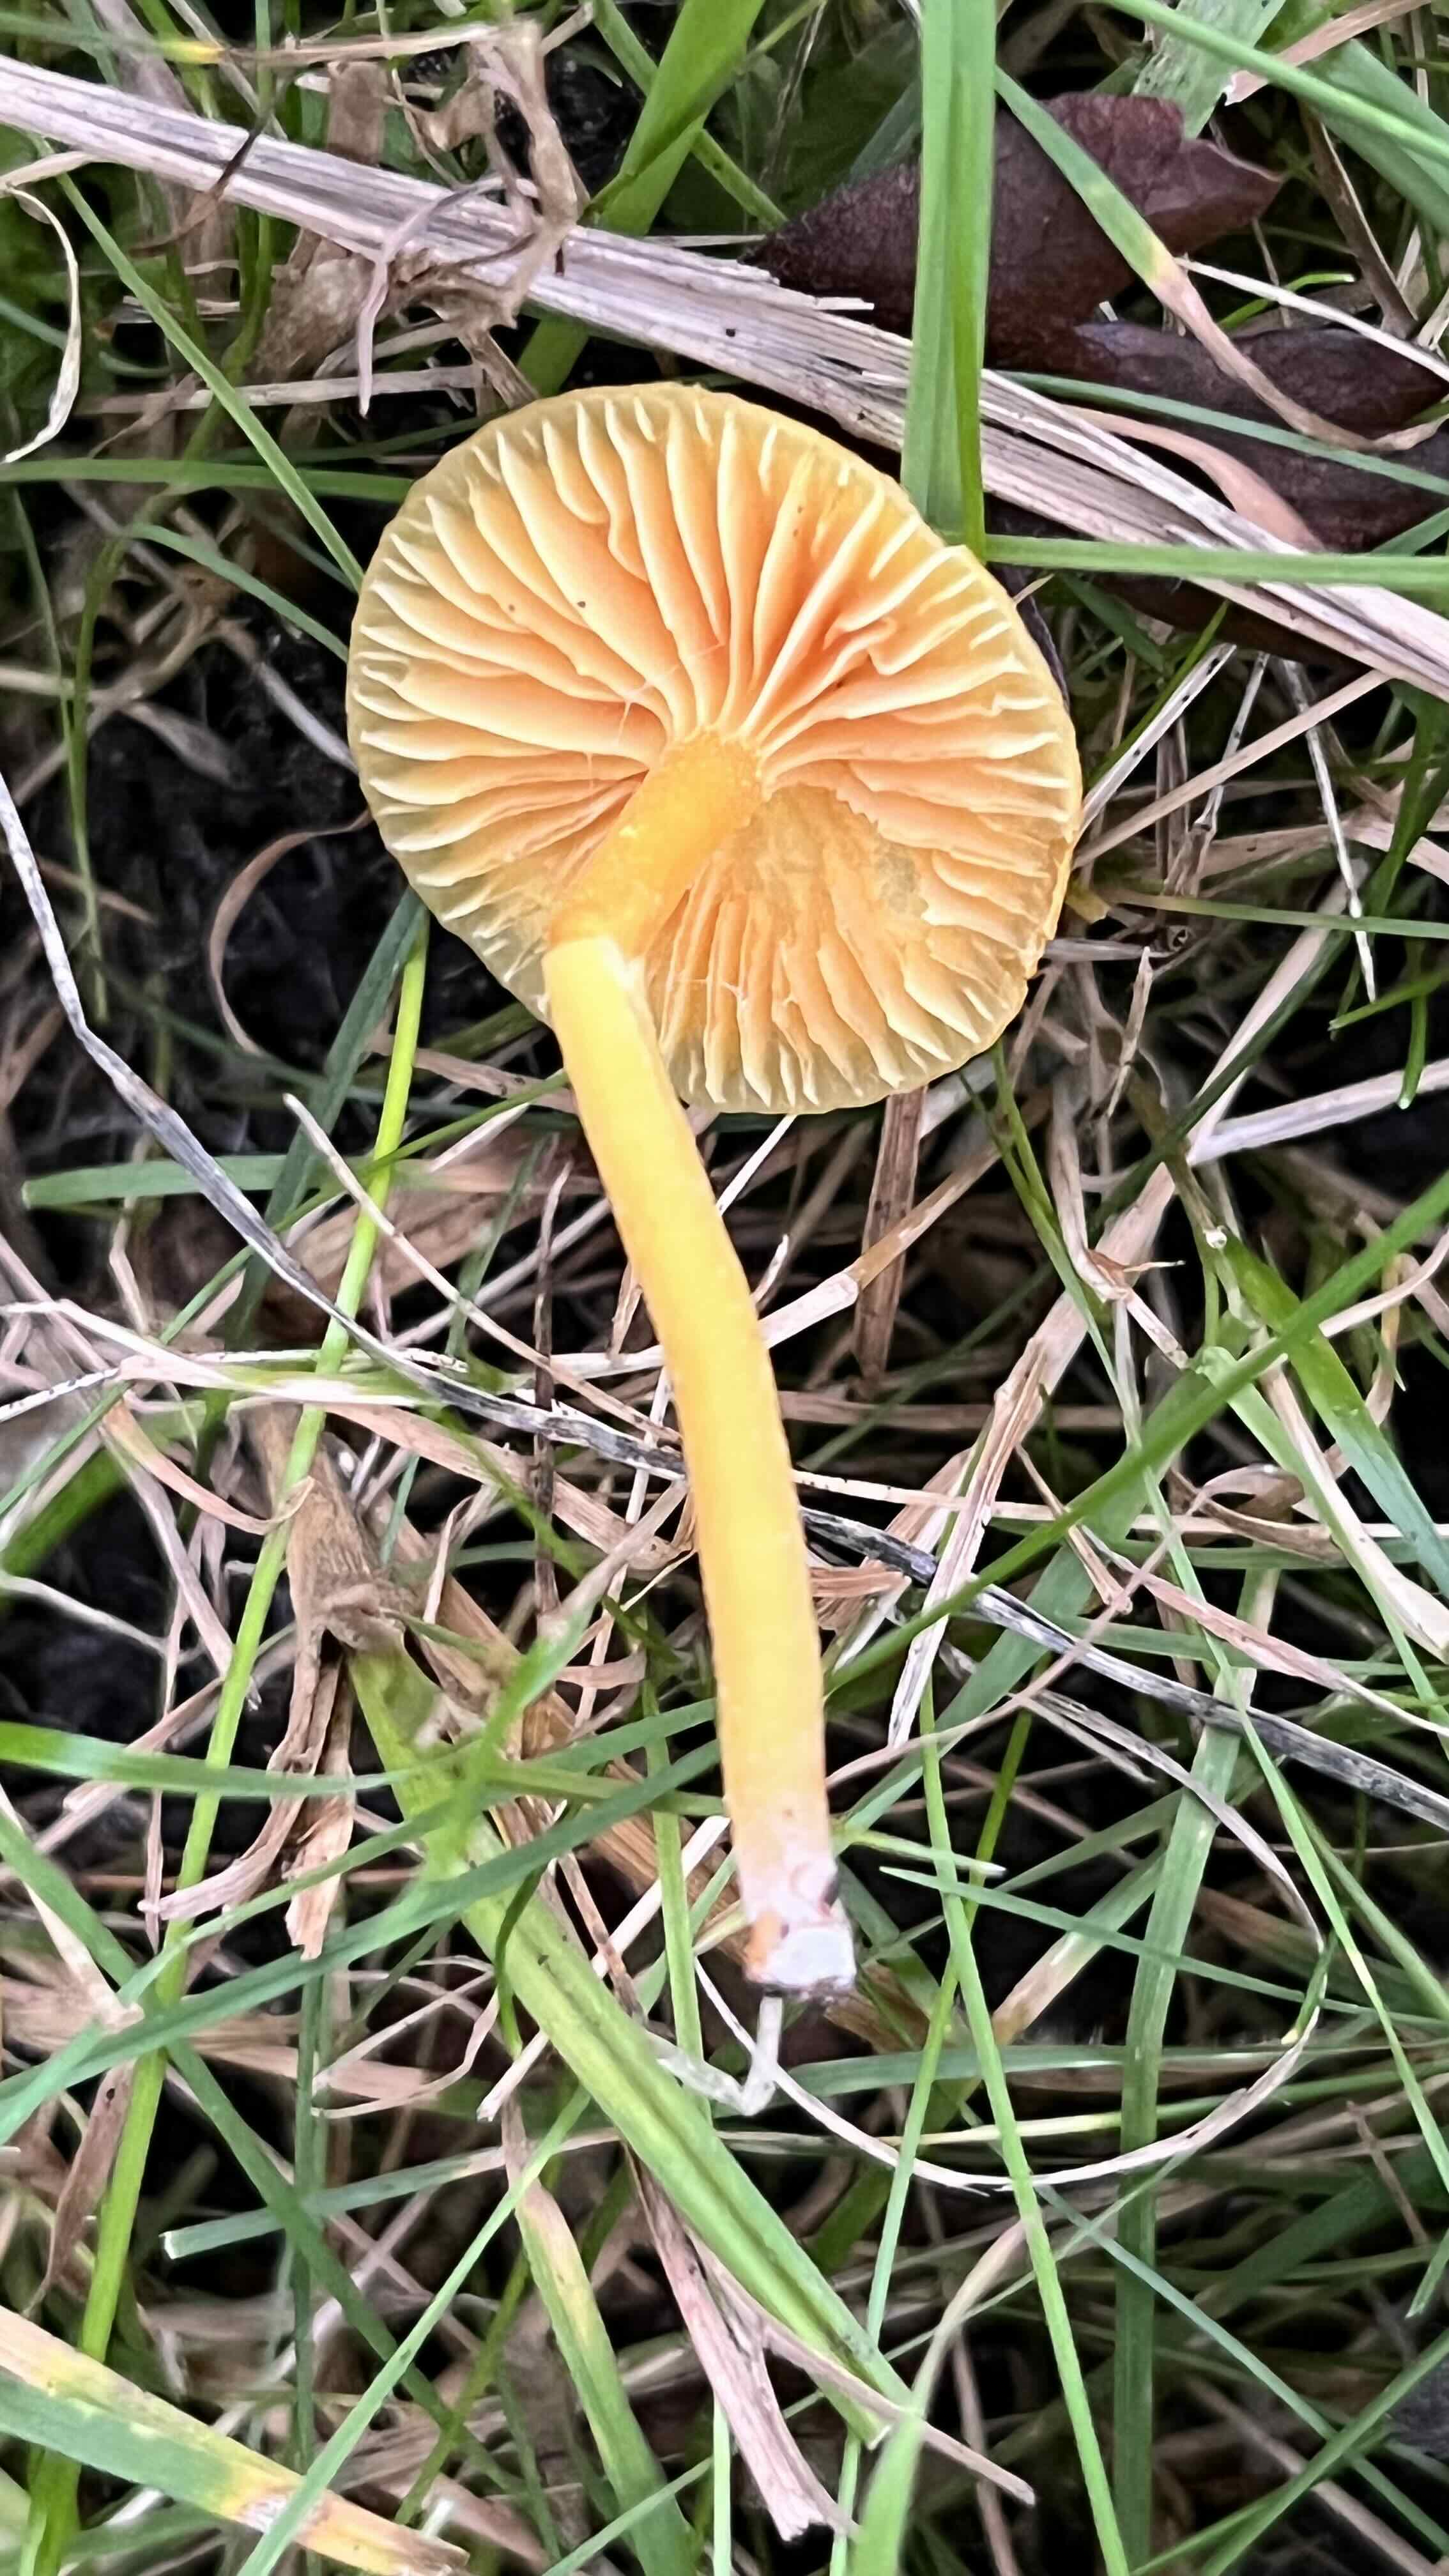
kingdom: Fungi
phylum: Basidiomycota
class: Agaricomycetes
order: Agaricales
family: Hygrophoraceae
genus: Hygrocybe
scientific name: Hygrocybe ceracea
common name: voksgul vokshat
